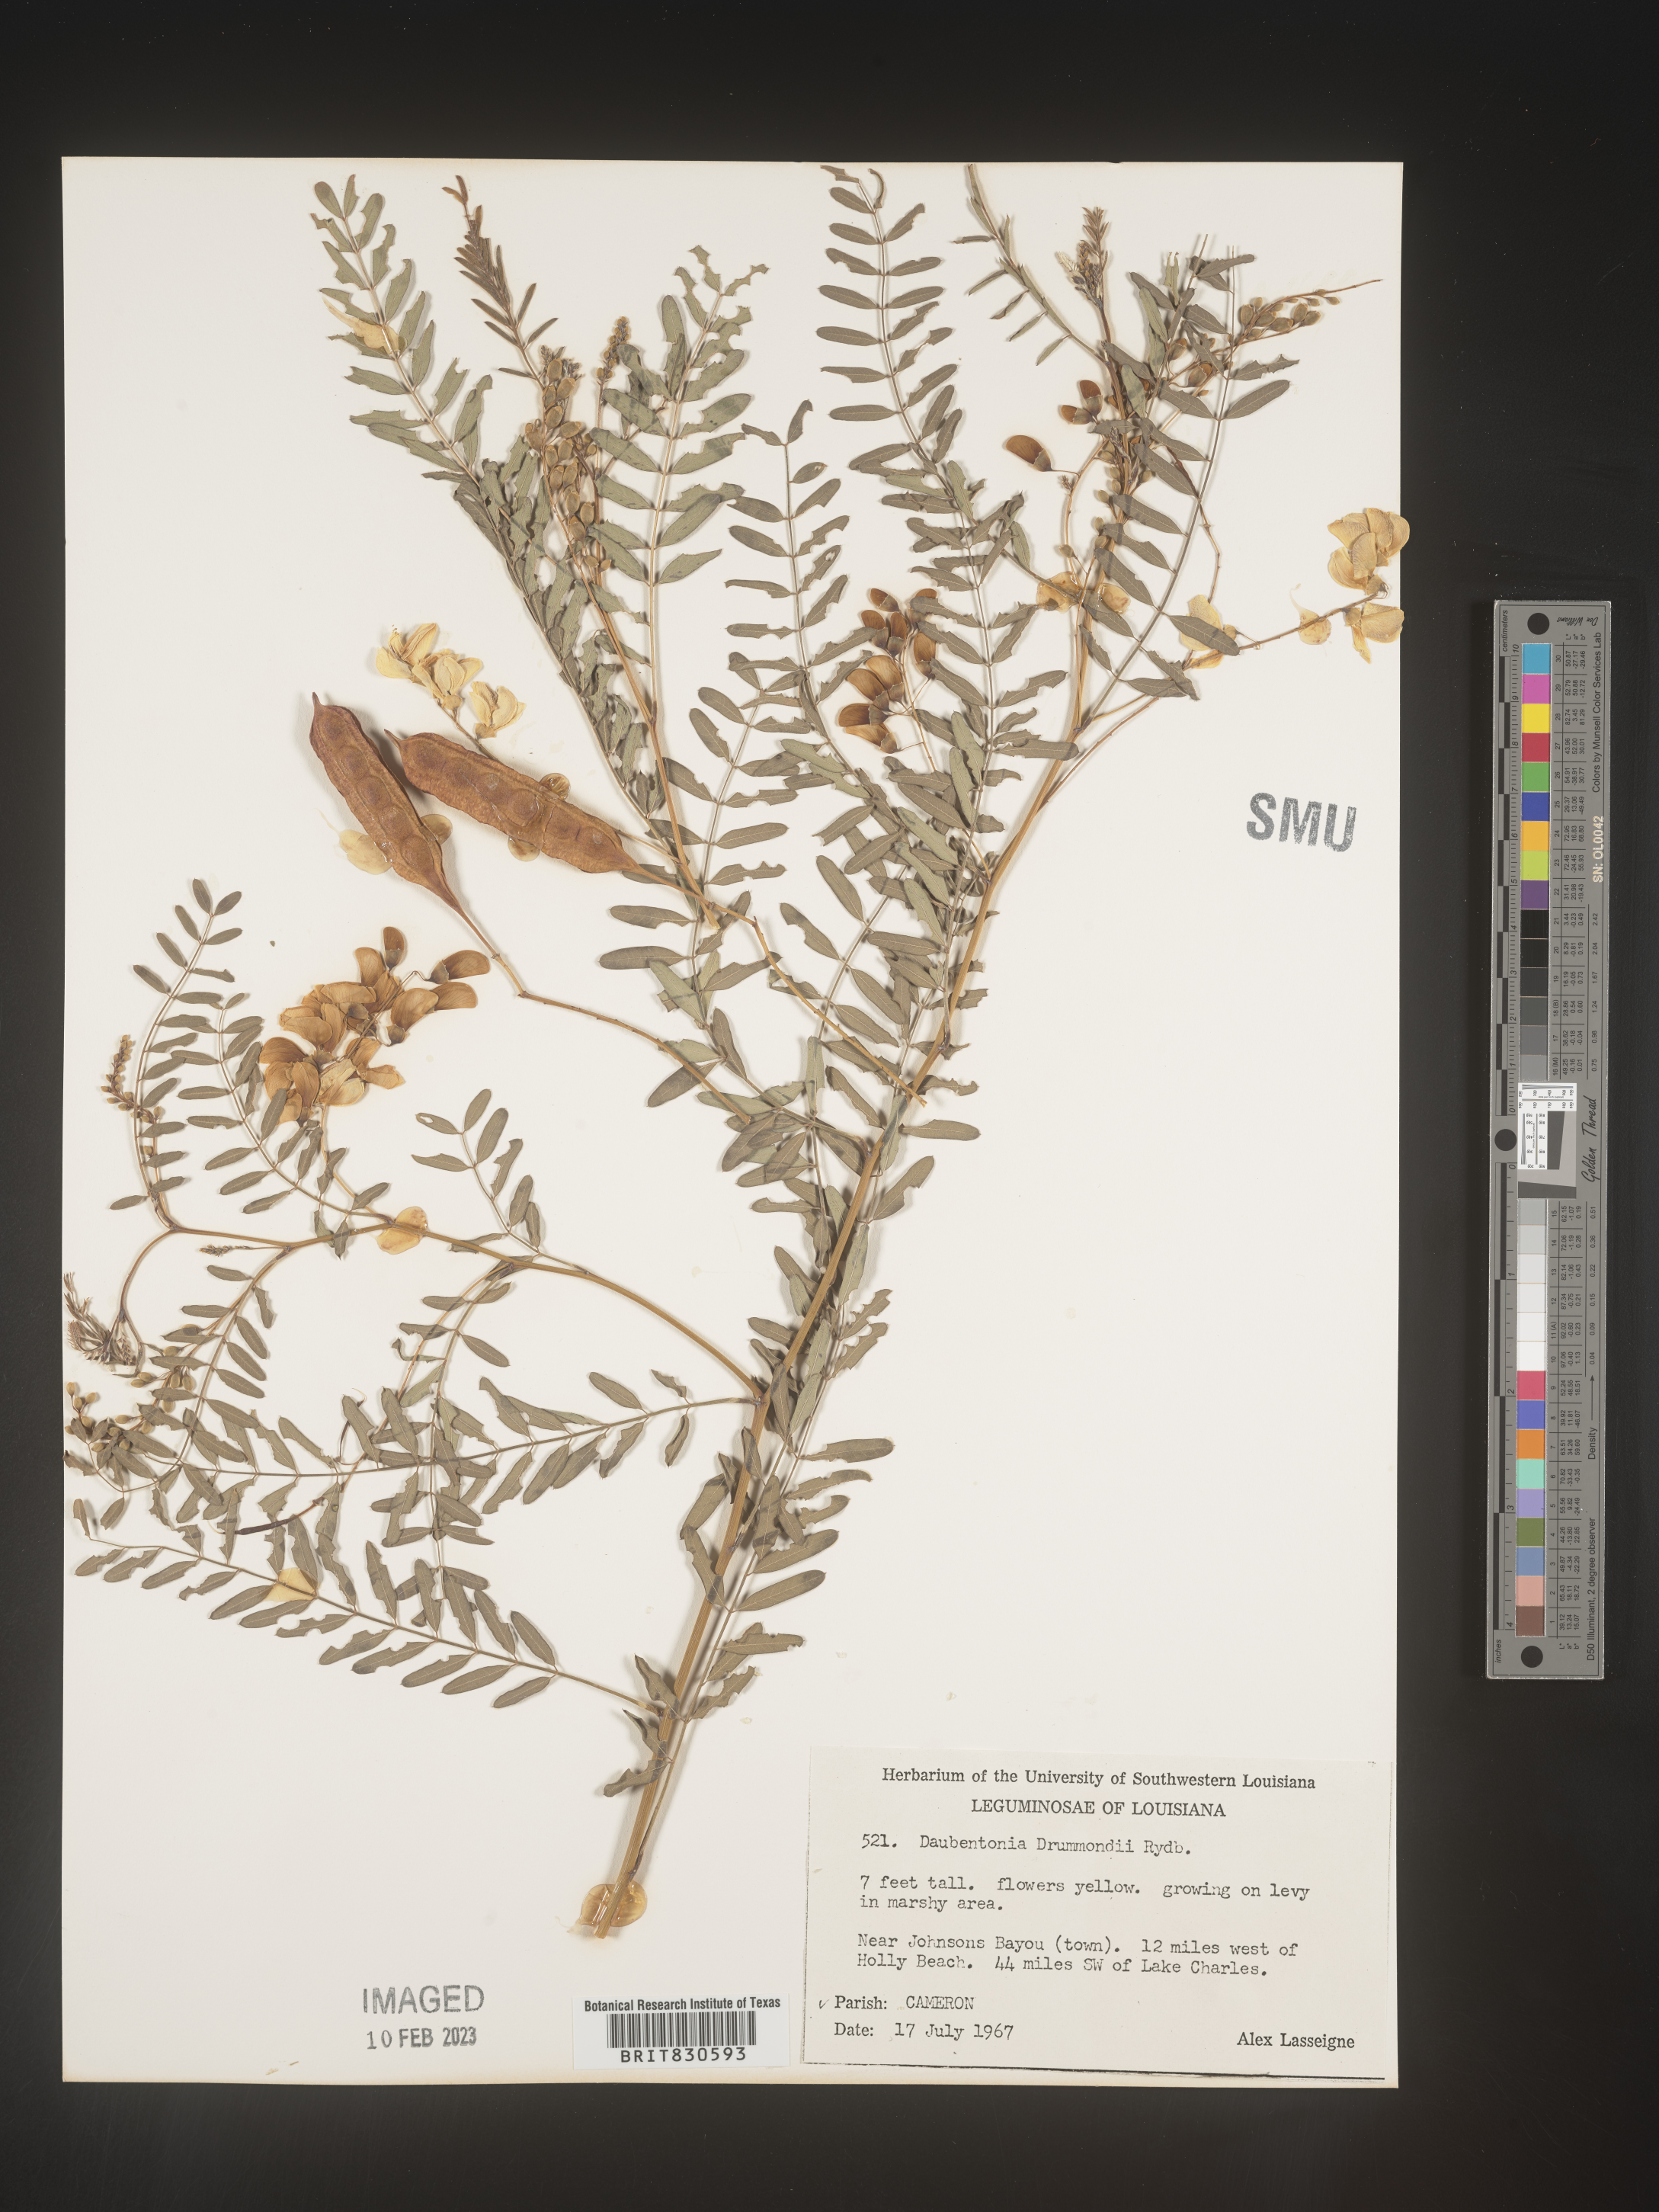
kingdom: Plantae
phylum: Tracheophyta
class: Magnoliopsida
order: Fabales
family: Fabaceae
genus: Sesbania
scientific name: Sesbania drummondii
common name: Poison-bean
